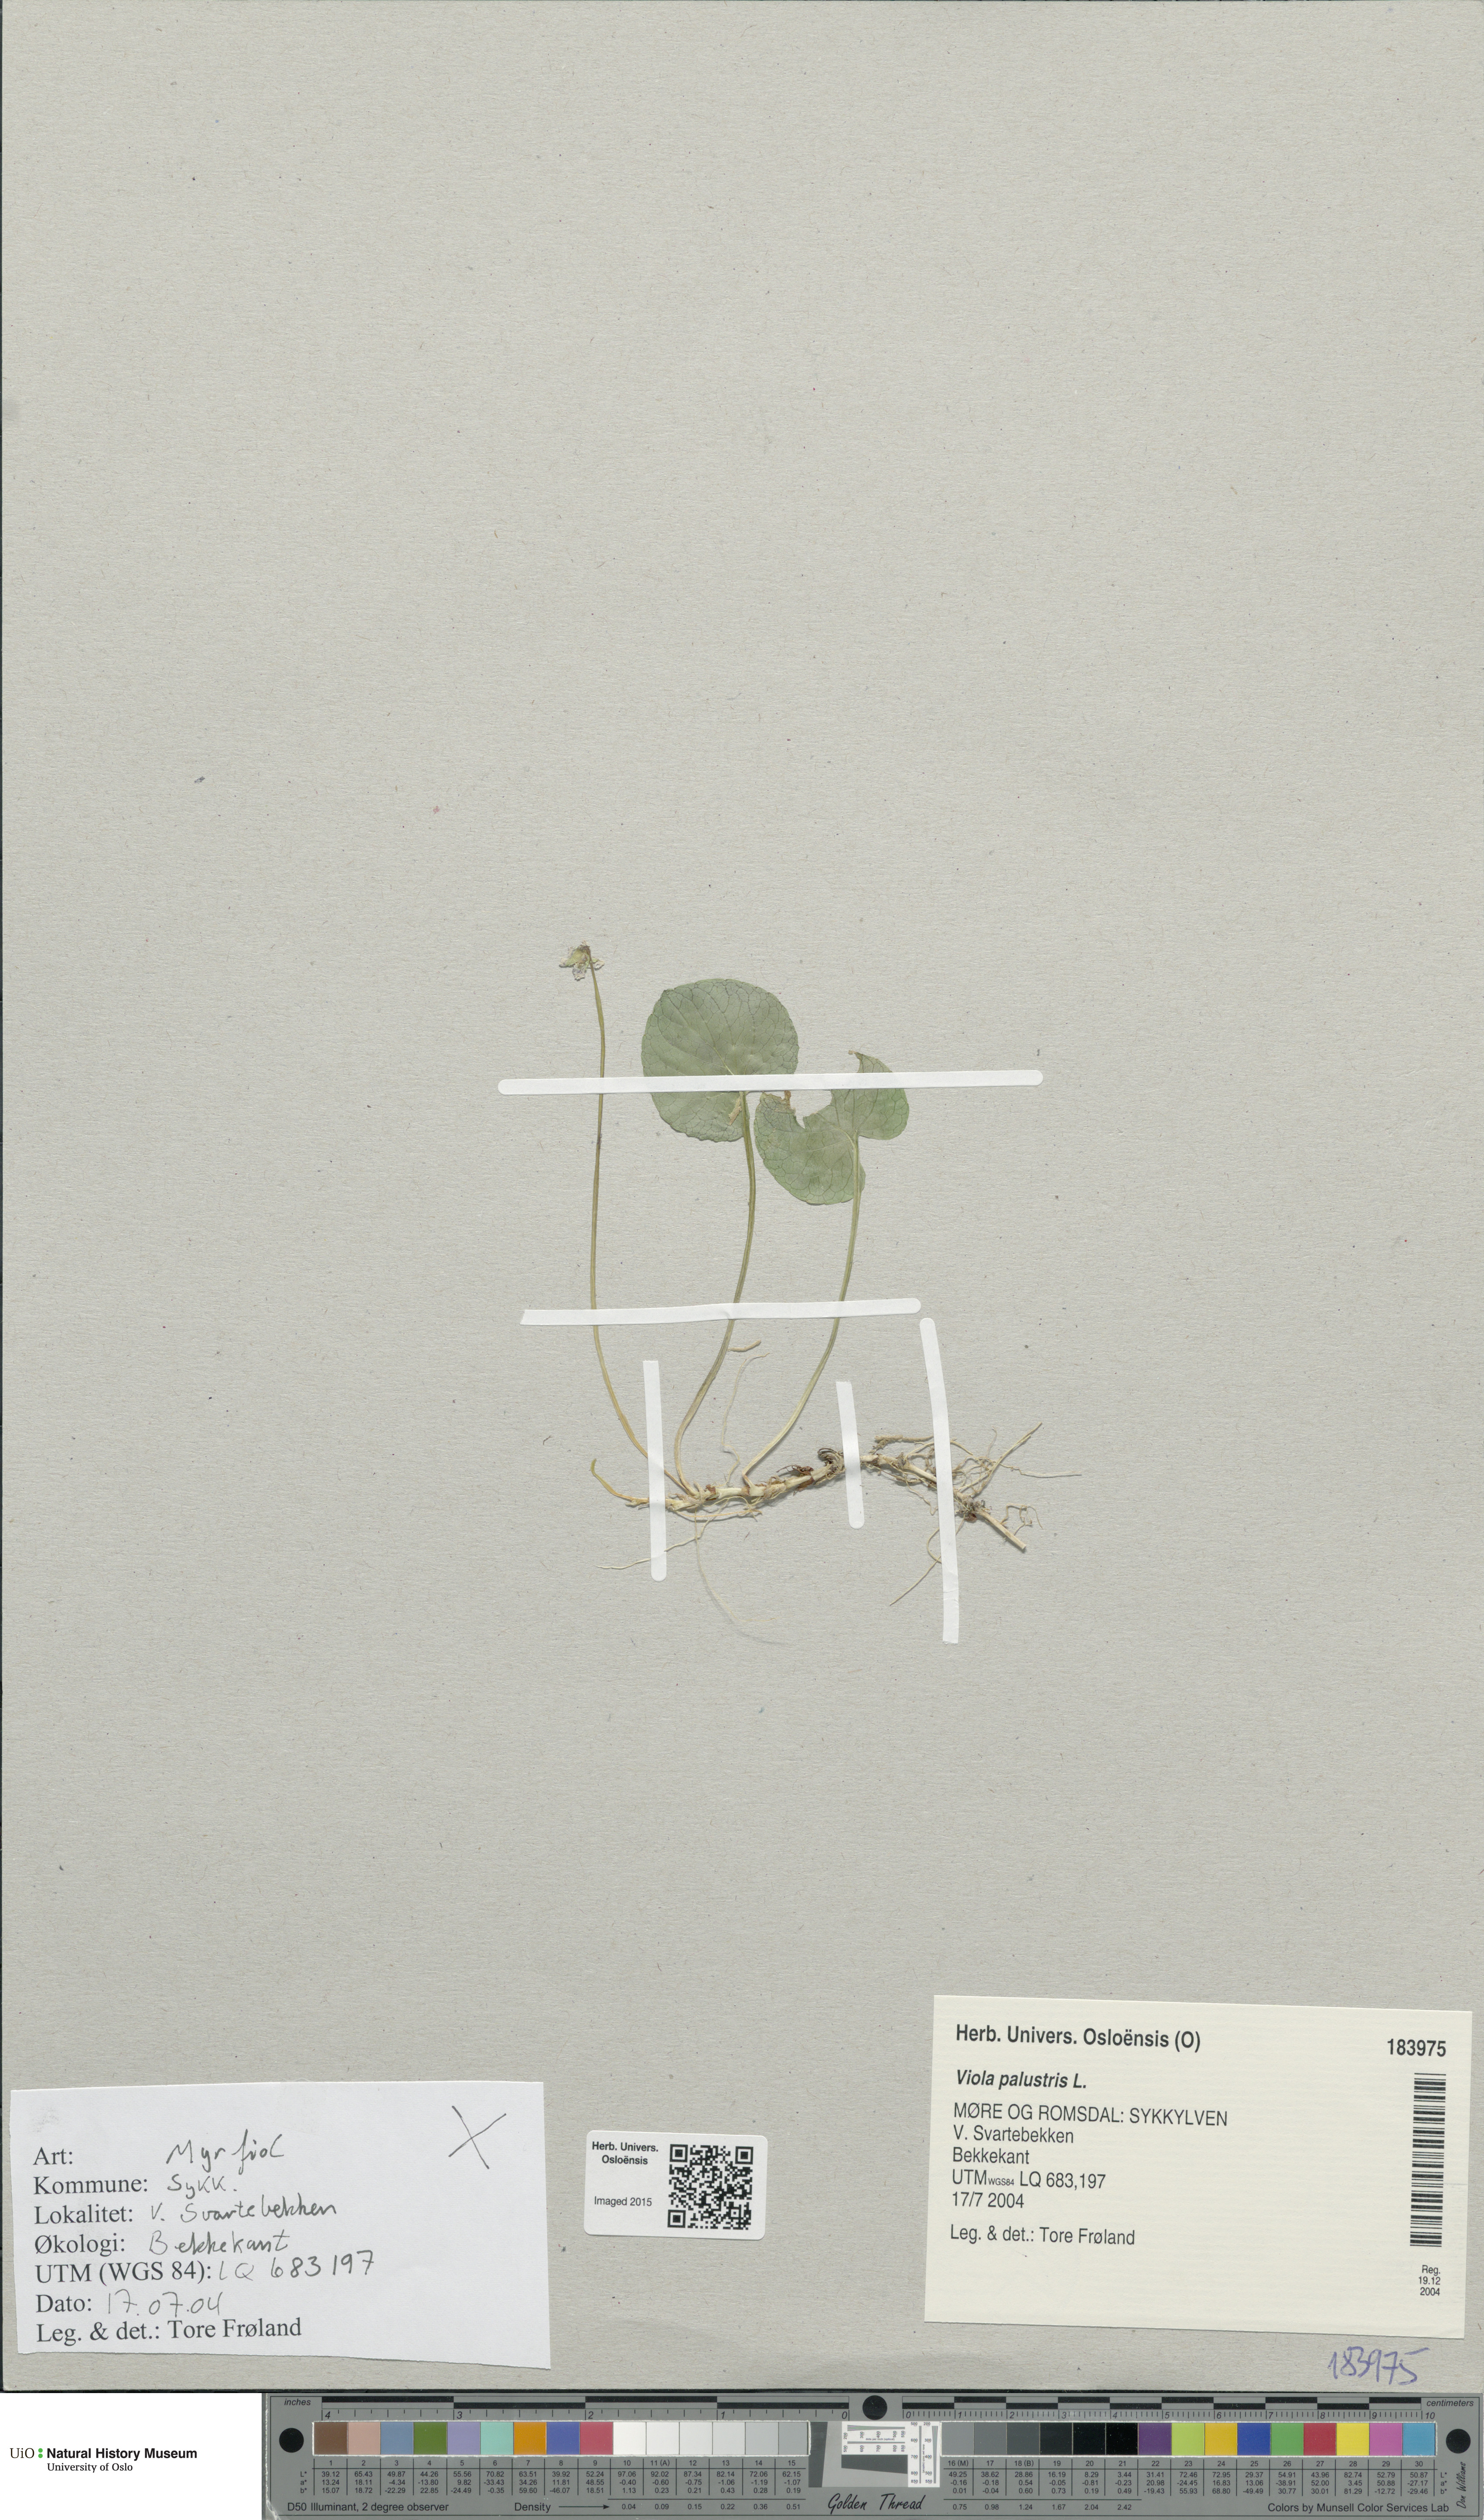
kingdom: Plantae
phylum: Tracheophyta
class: Magnoliopsida
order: Malpighiales
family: Violaceae
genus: Viola
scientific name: Viola palustris
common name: Marsh violet
